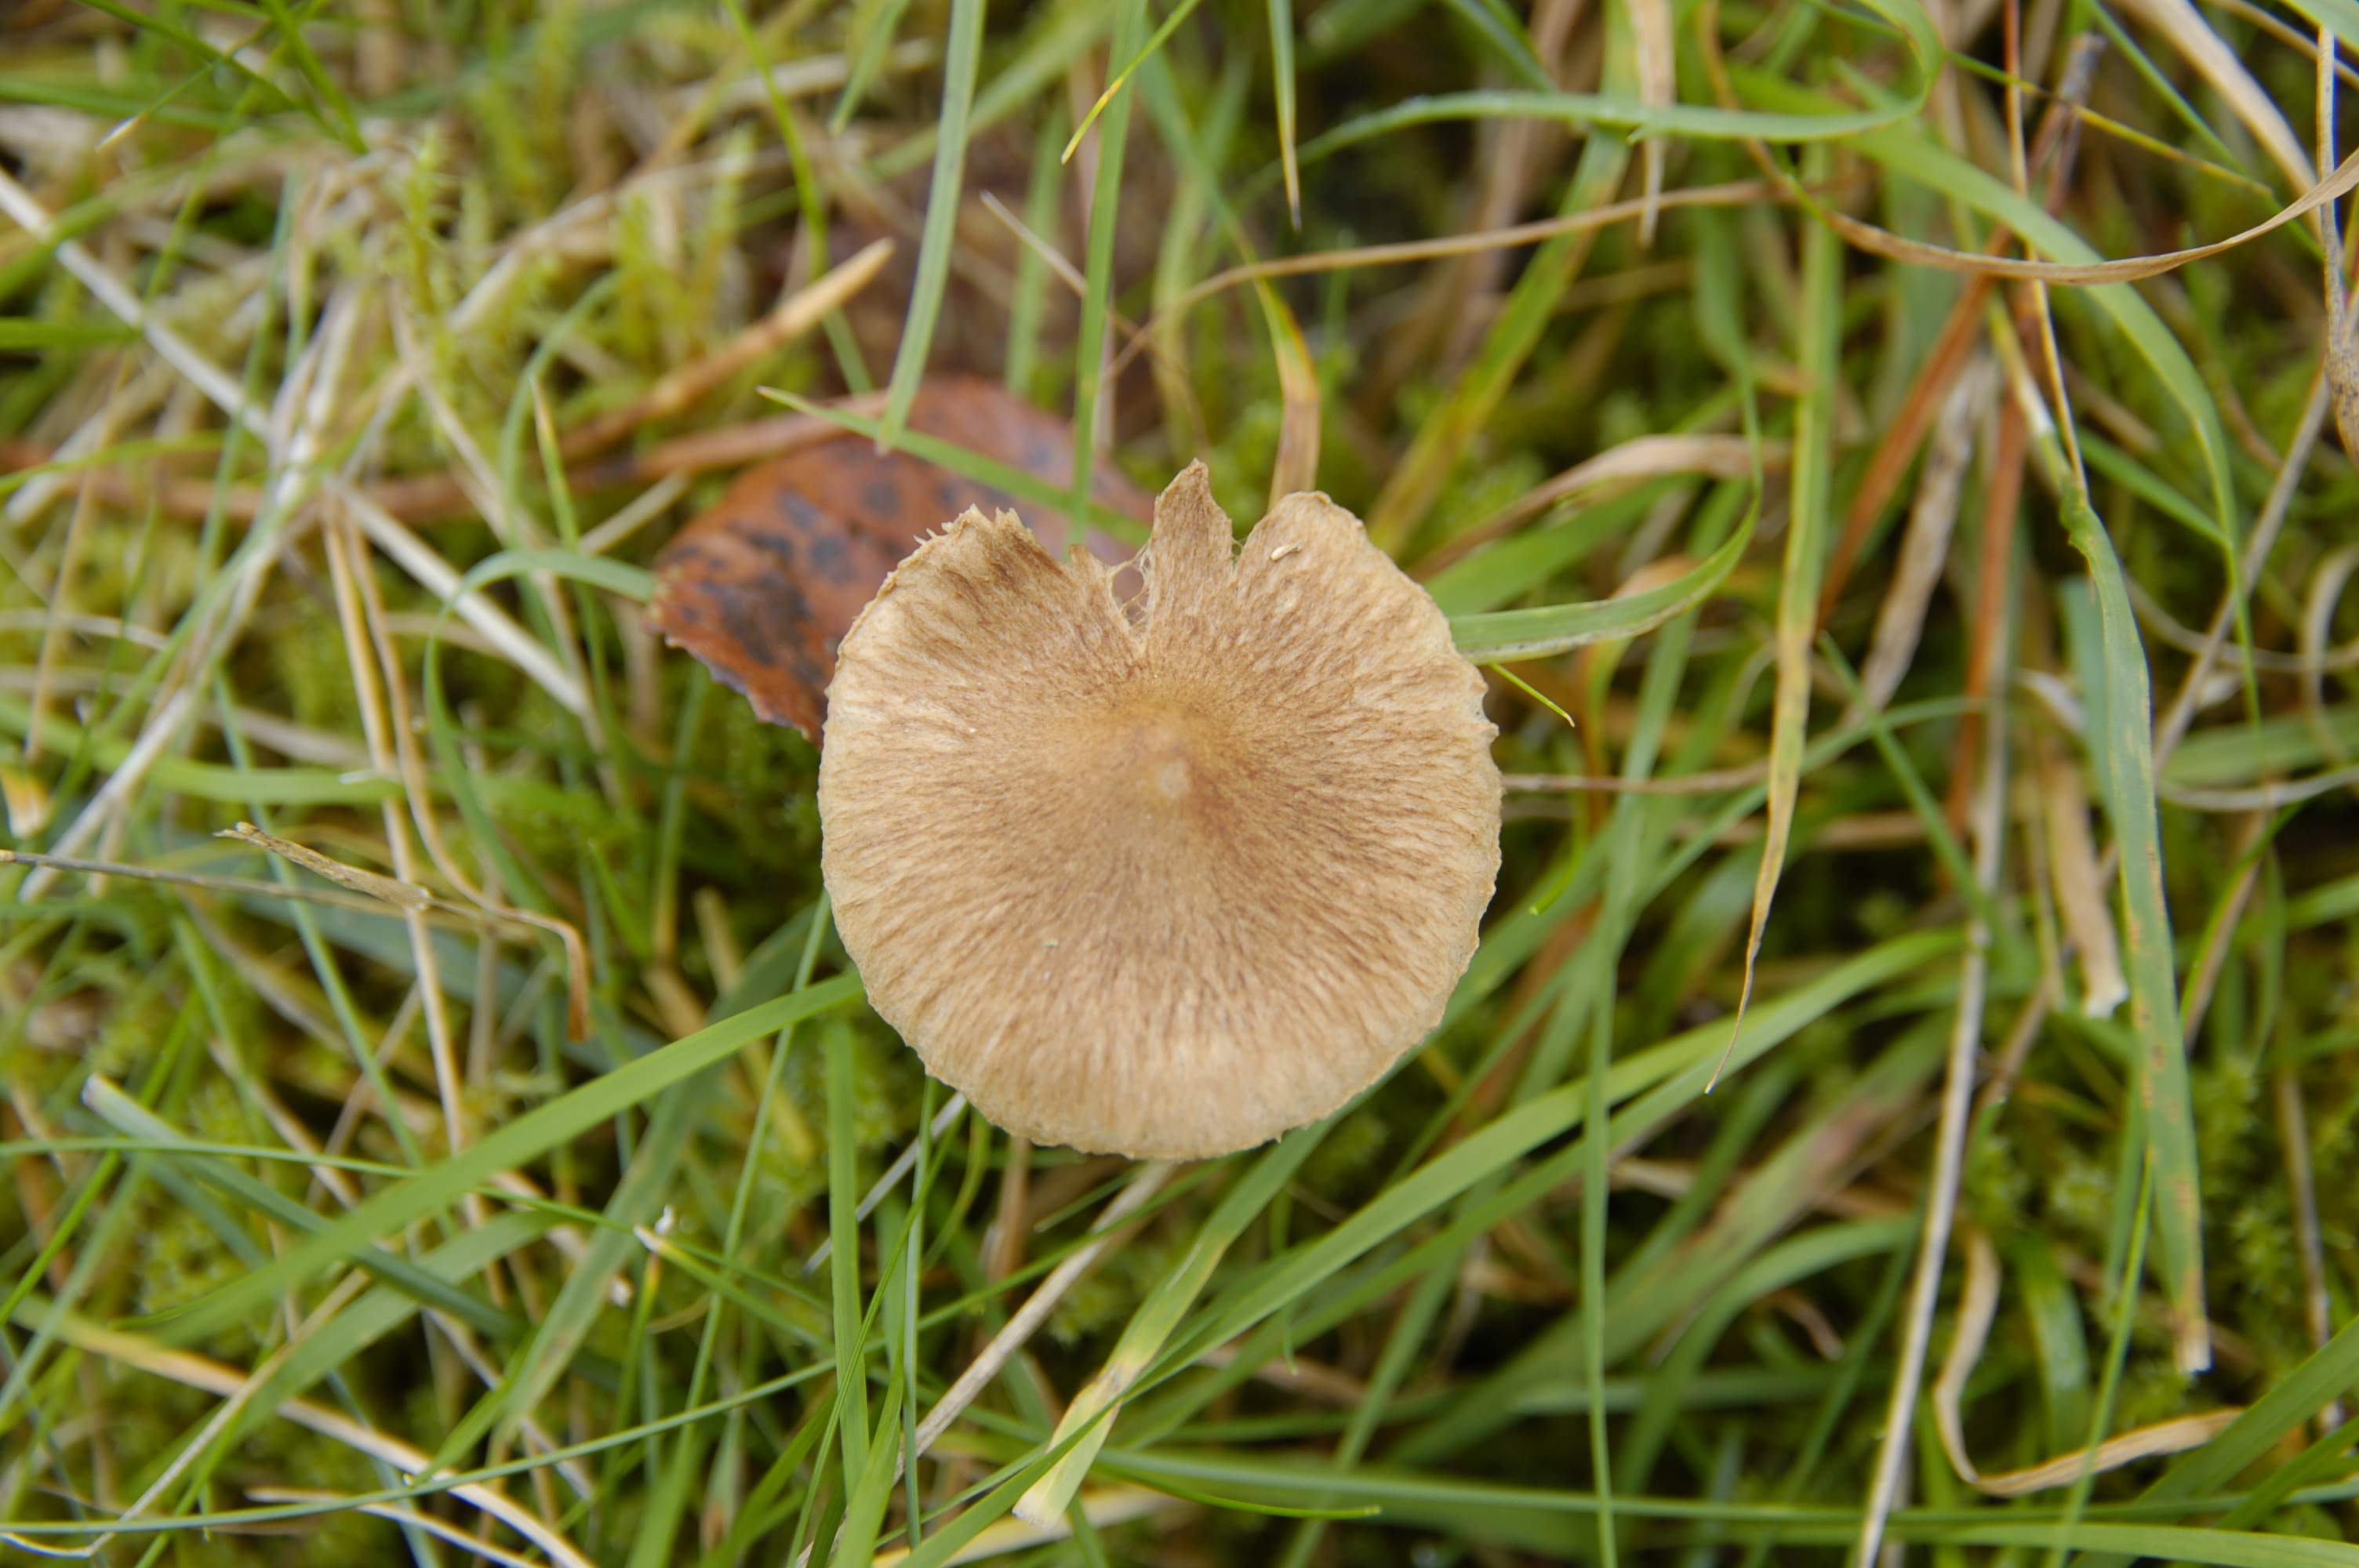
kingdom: Fungi
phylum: Basidiomycota
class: Agaricomycetes
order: Agaricales
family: Inocybaceae
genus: Inocybe
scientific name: Inocybe
